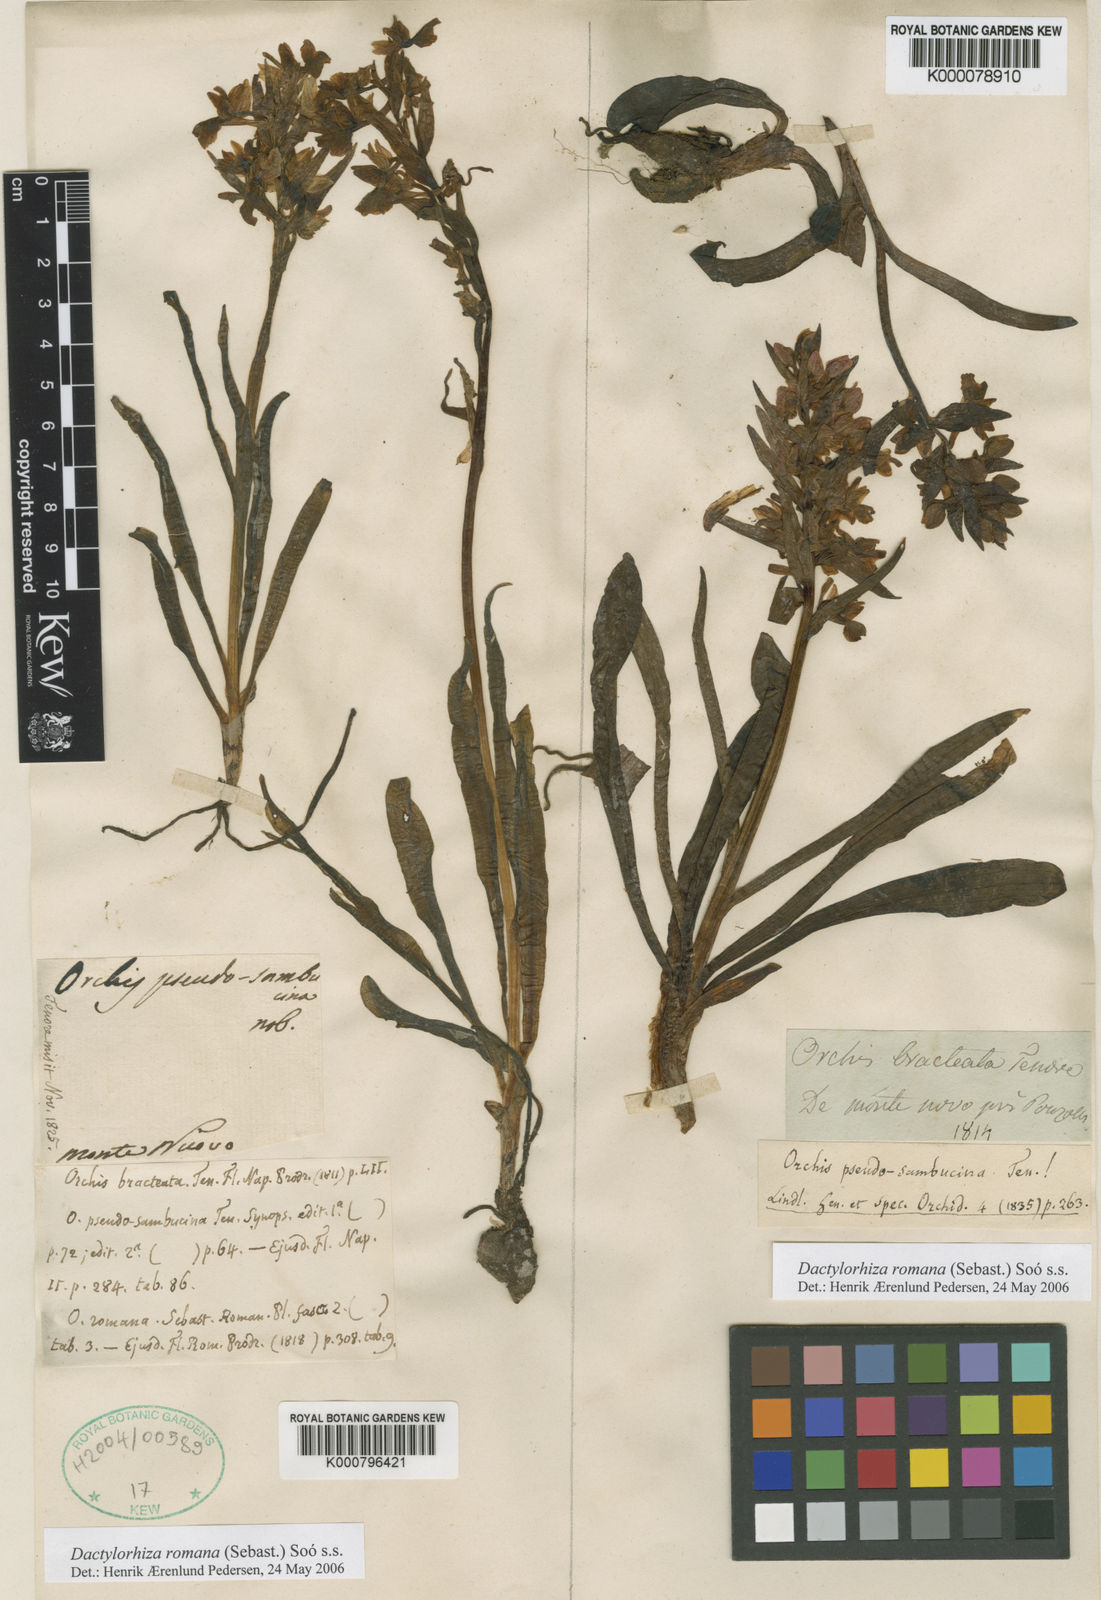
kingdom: Plantae
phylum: Tracheophyta
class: Liliopsida
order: Asparagales
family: Orchidaceae
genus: Dactylorhiza
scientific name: Dactylorhiza
